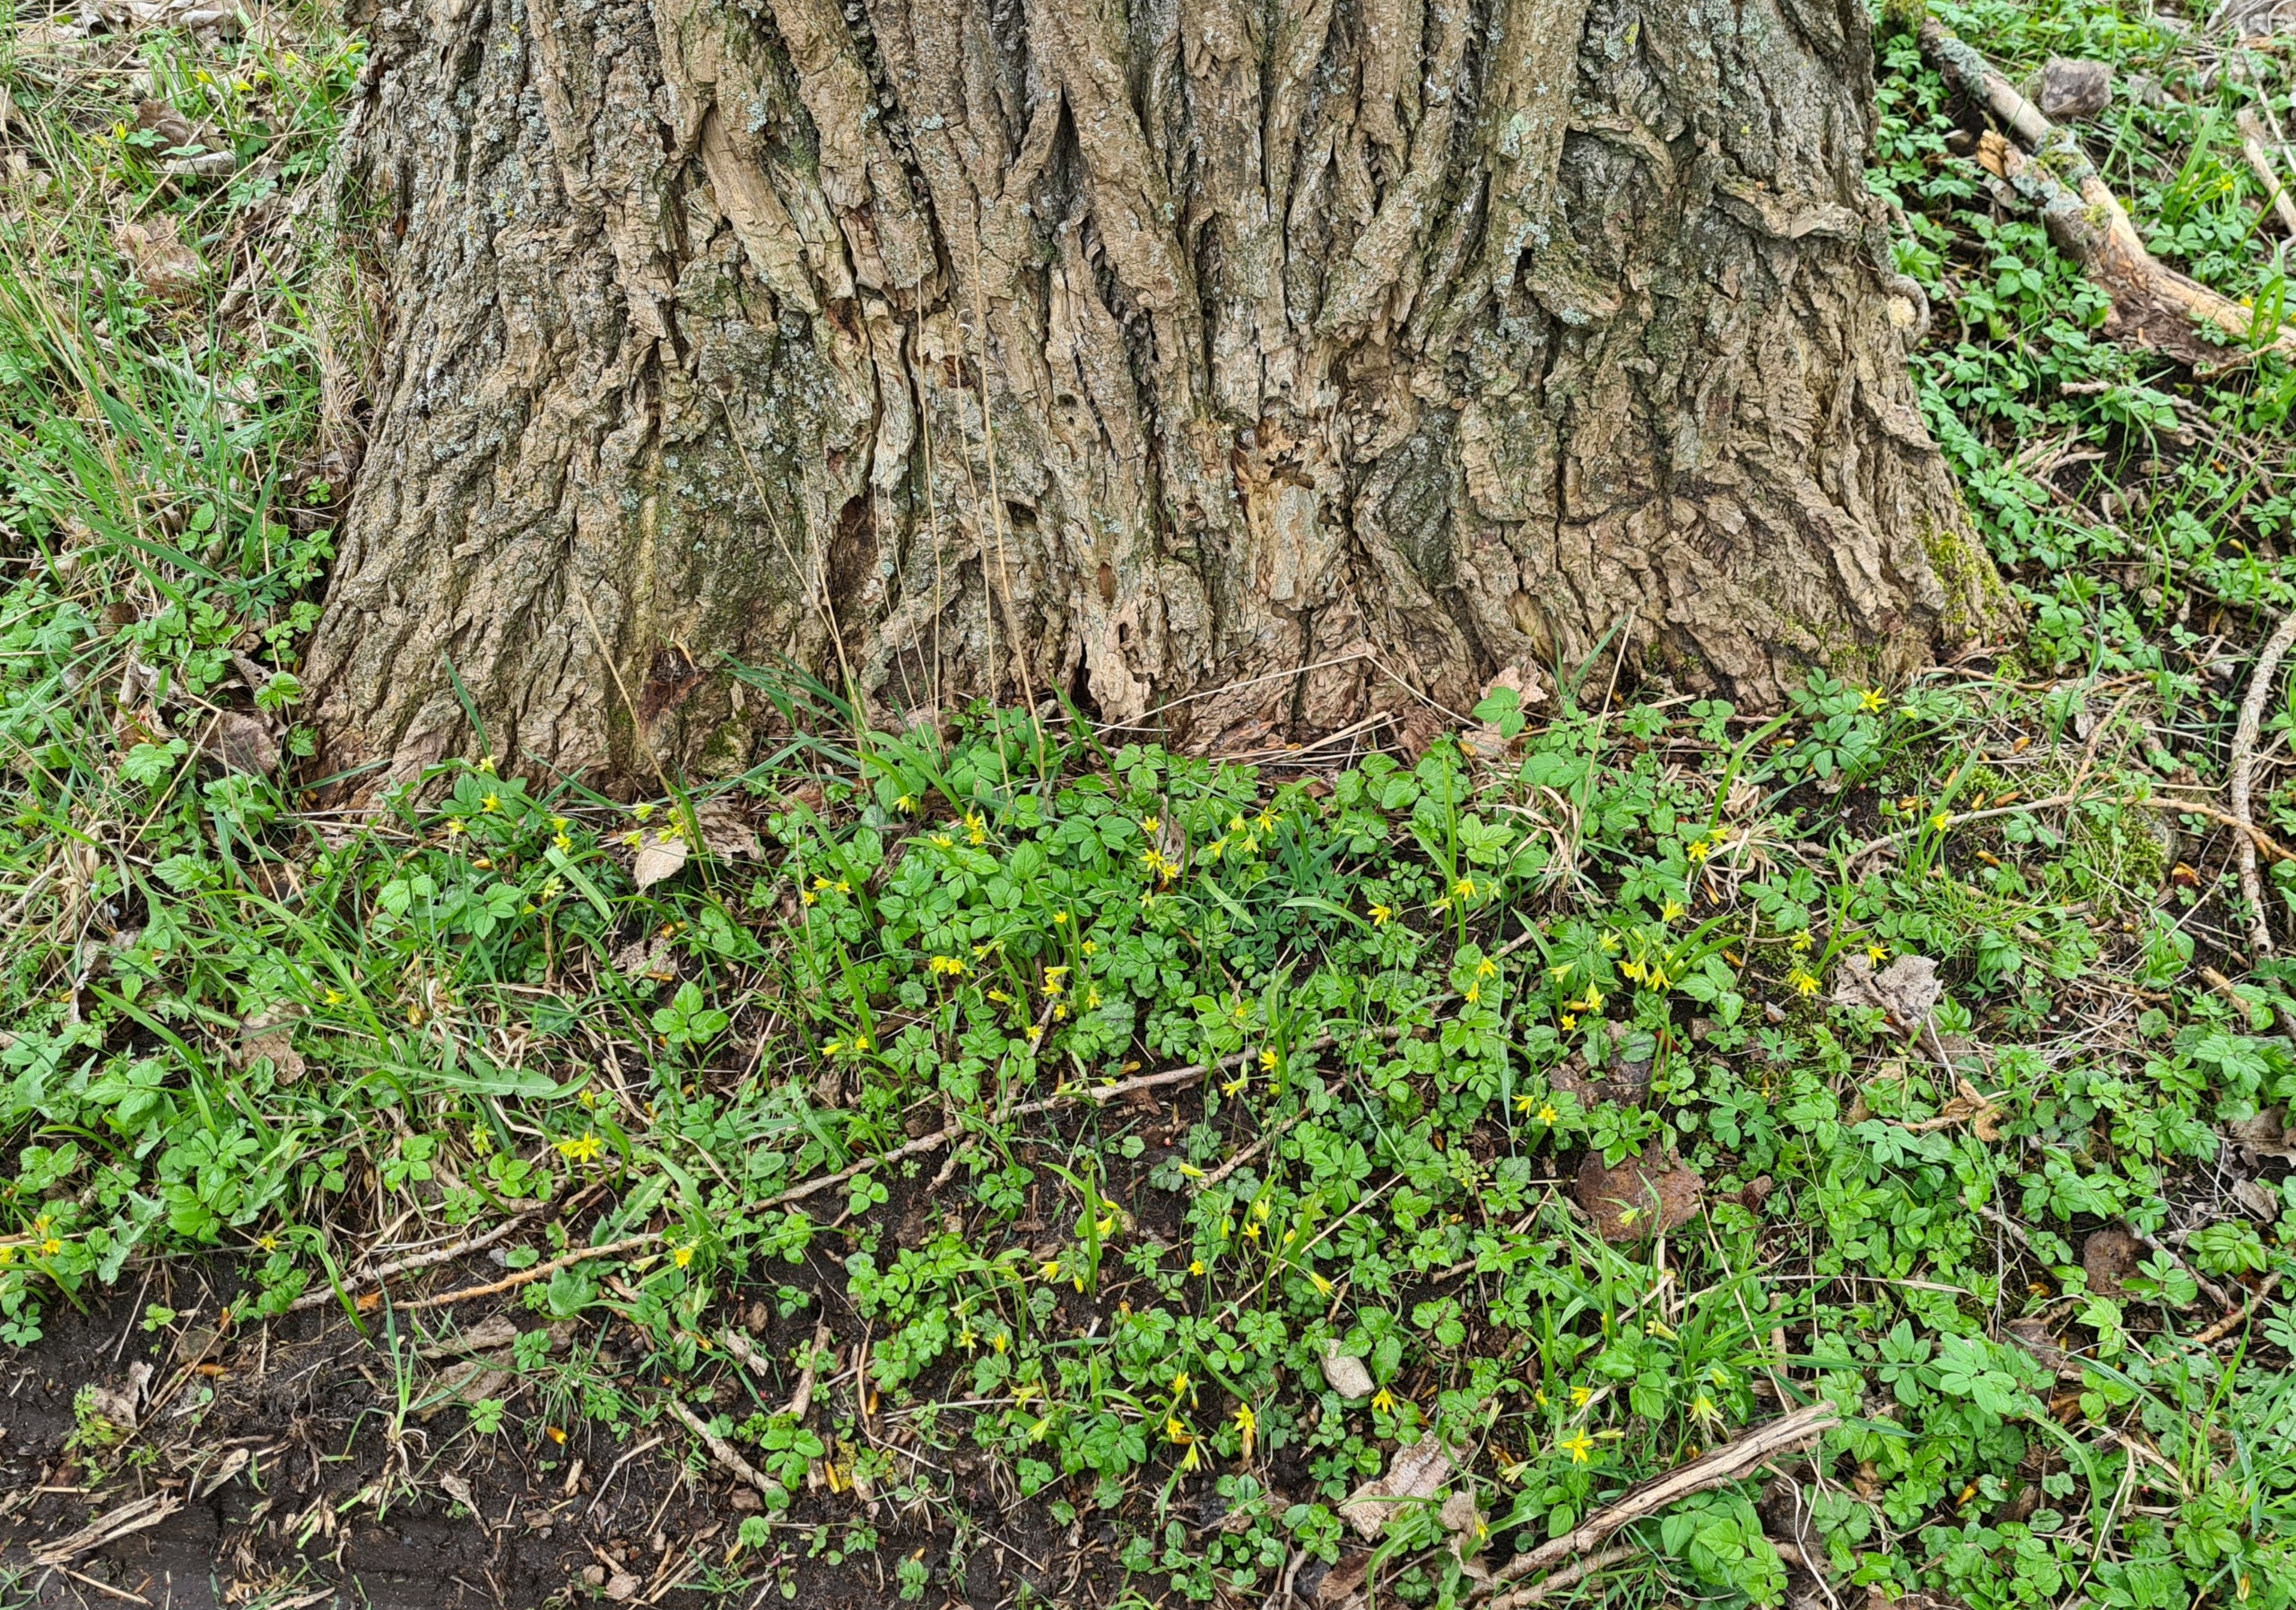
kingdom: Plantae
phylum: Tracheophyta
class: Liliopsida
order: Liliales
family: Liliaceae
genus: Gagea
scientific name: Gagea lutea
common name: Almindelig guldstjerne
